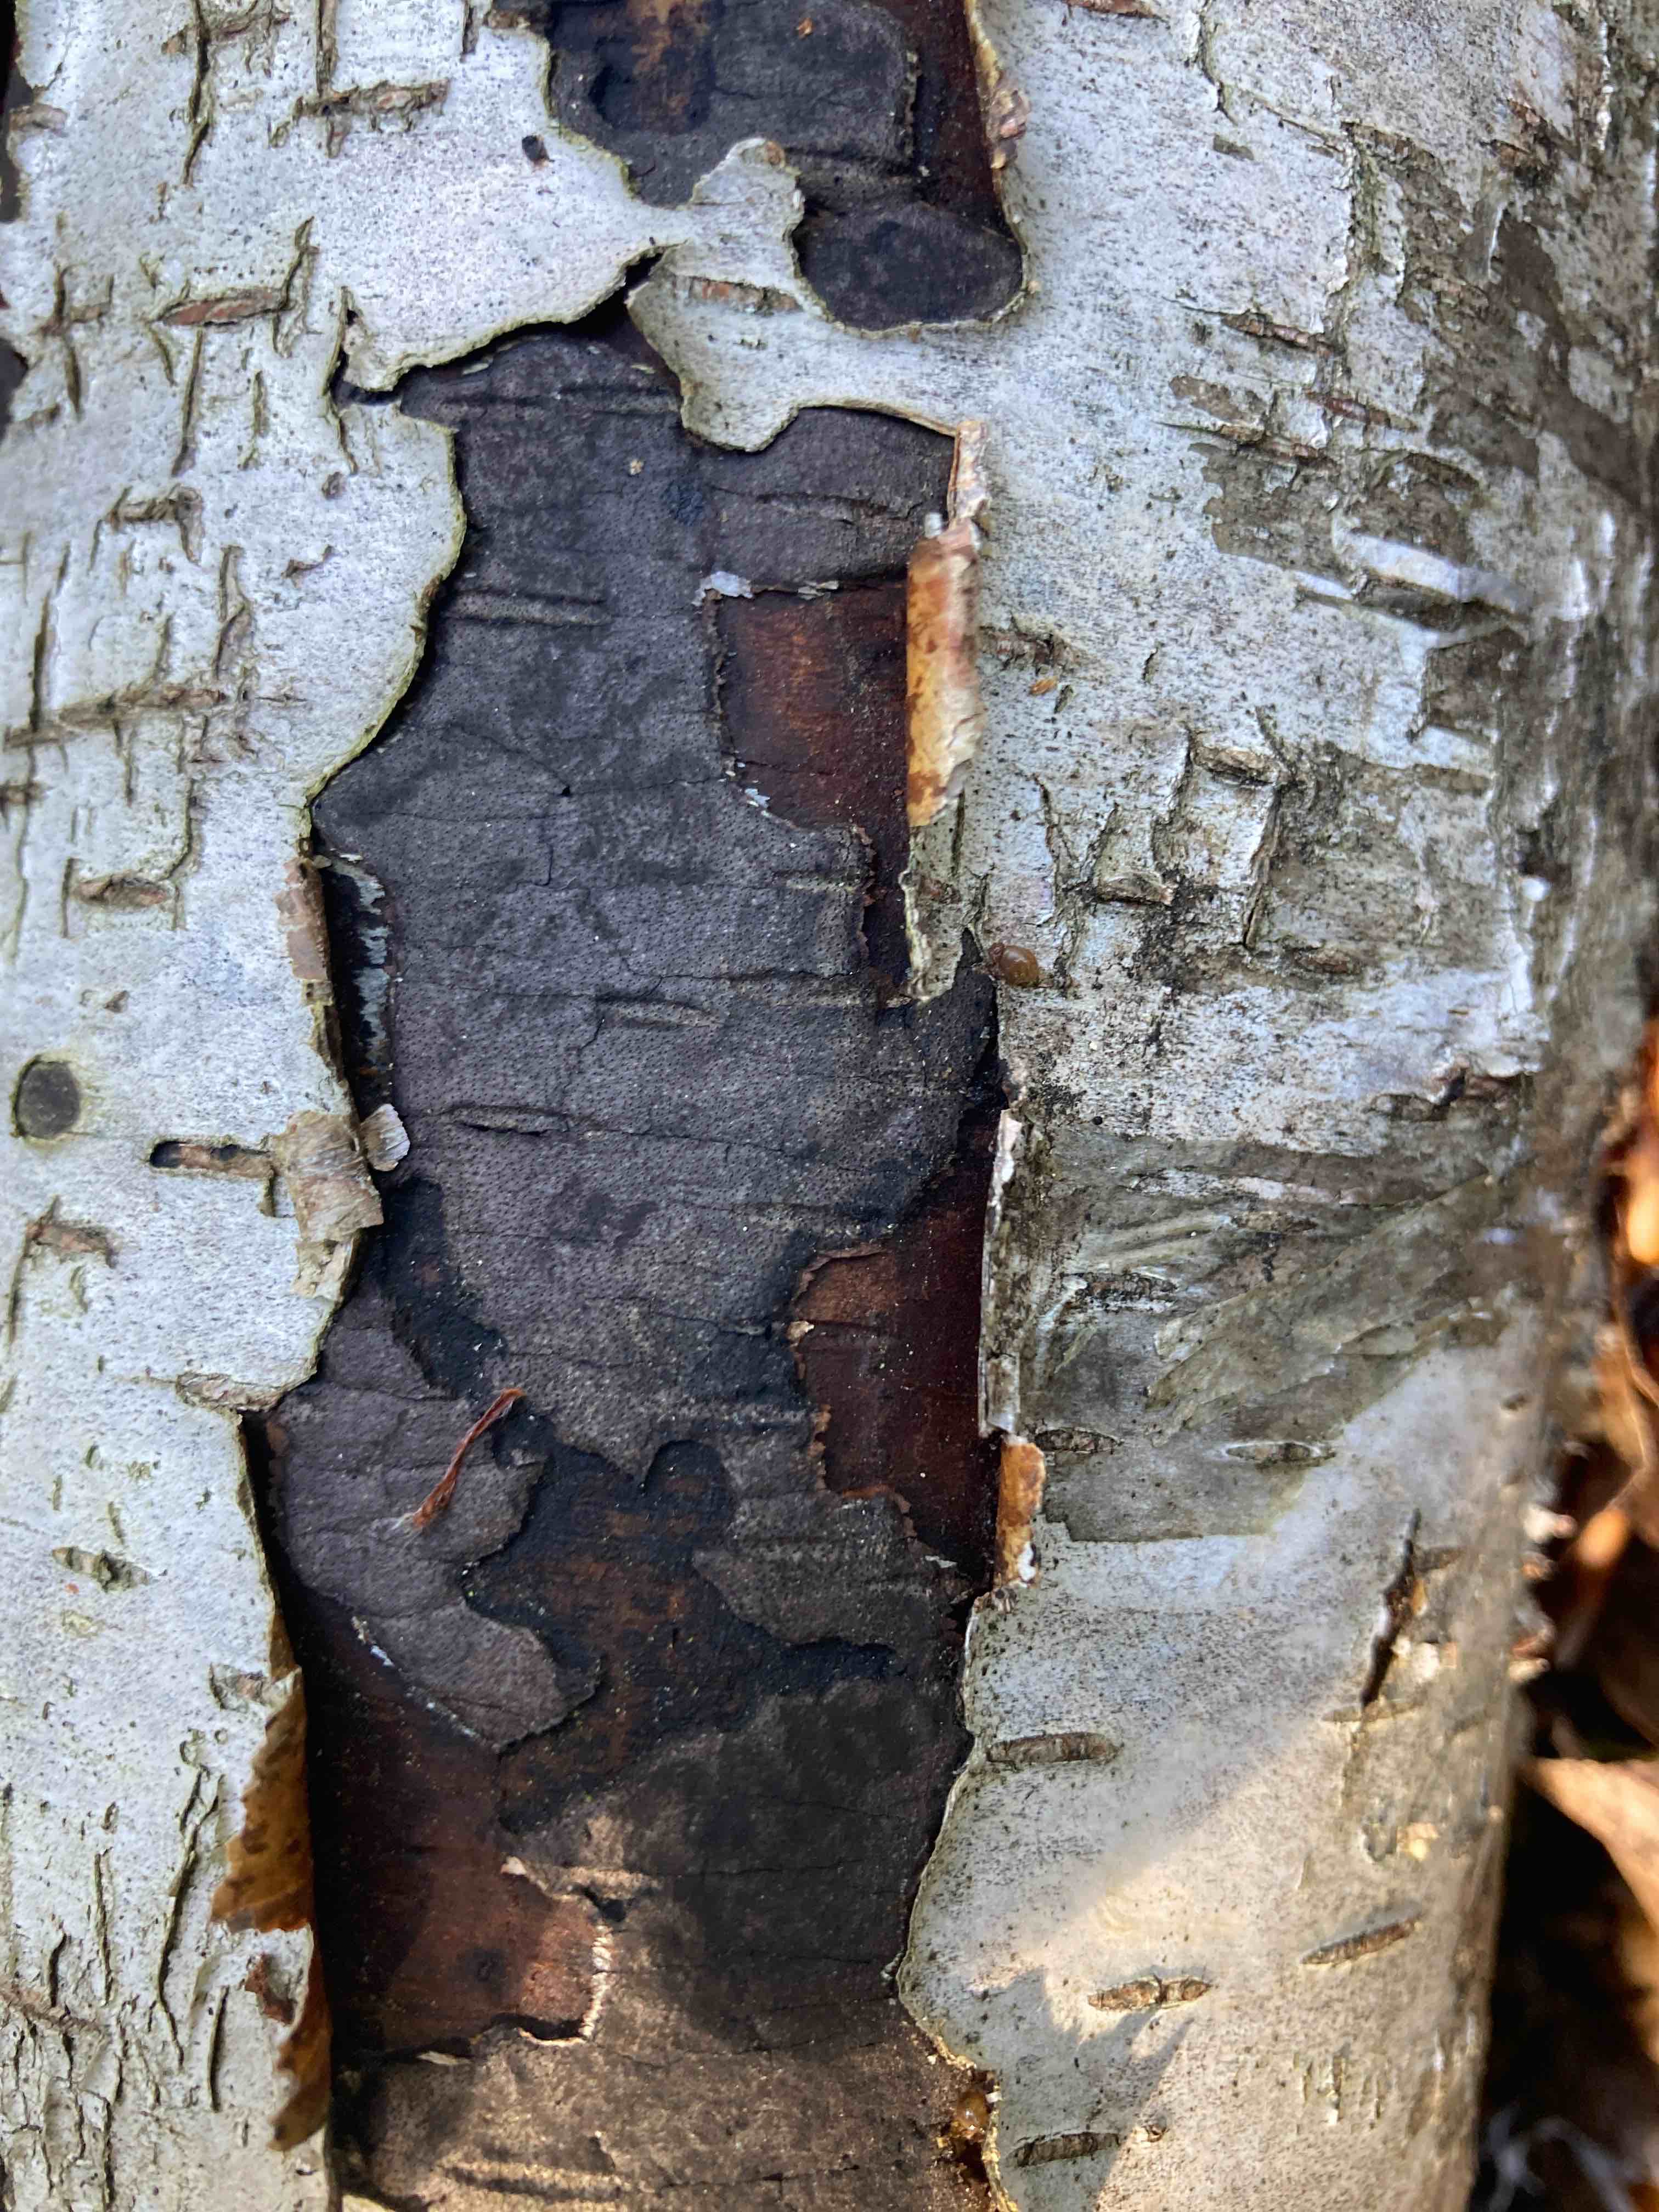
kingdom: Fungi
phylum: Ascomycota
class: Sordariomycetes
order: Xylariales
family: Diatrypaceae
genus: Diatrype
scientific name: Diatrype
